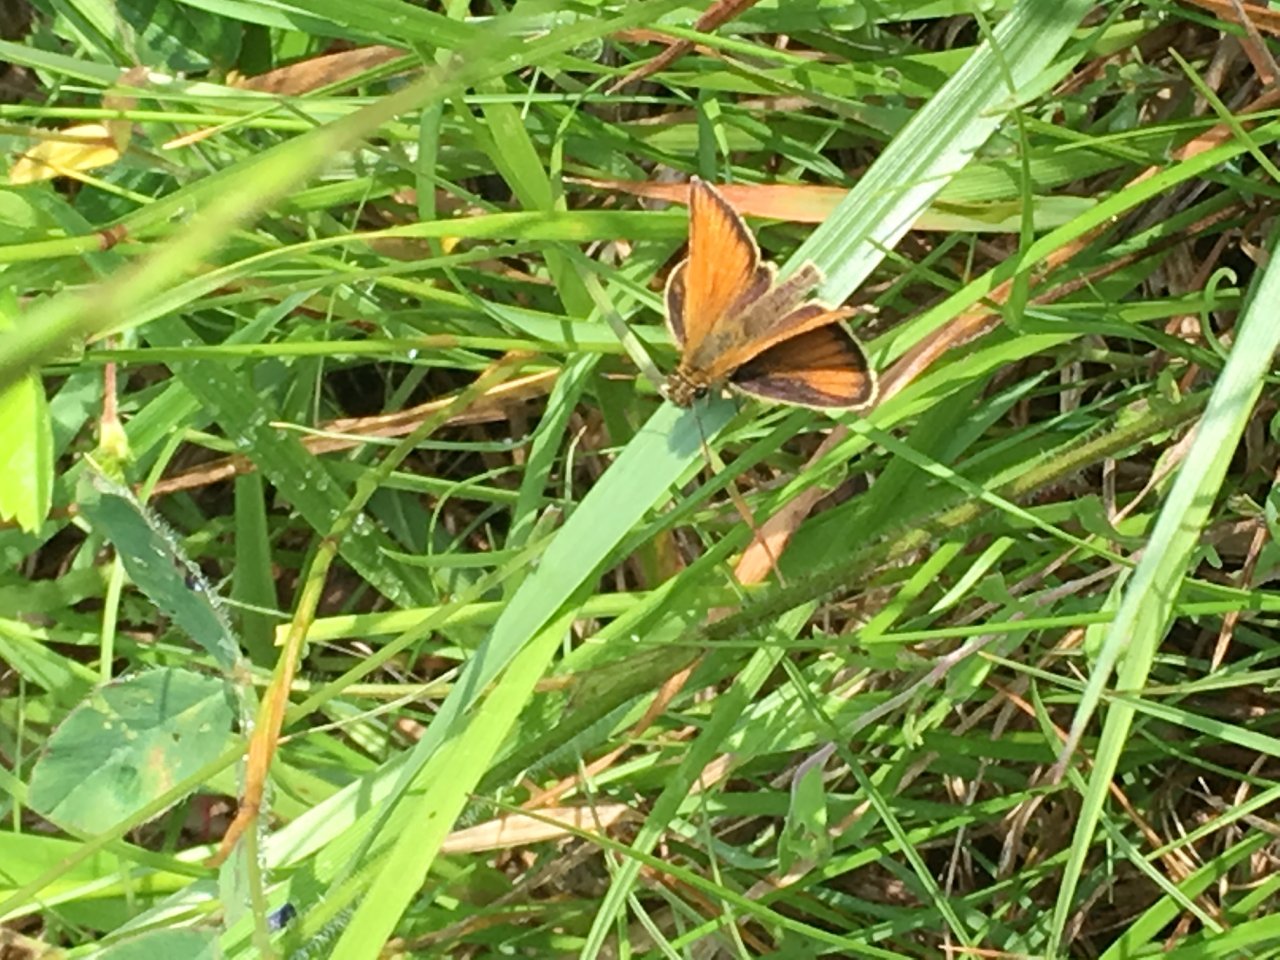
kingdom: Animalia
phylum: Arthropoda
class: Insecta
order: Lepidoptera
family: Hesperiidae
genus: Thymelicus
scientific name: Thymelicus lineola
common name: European Skipper
